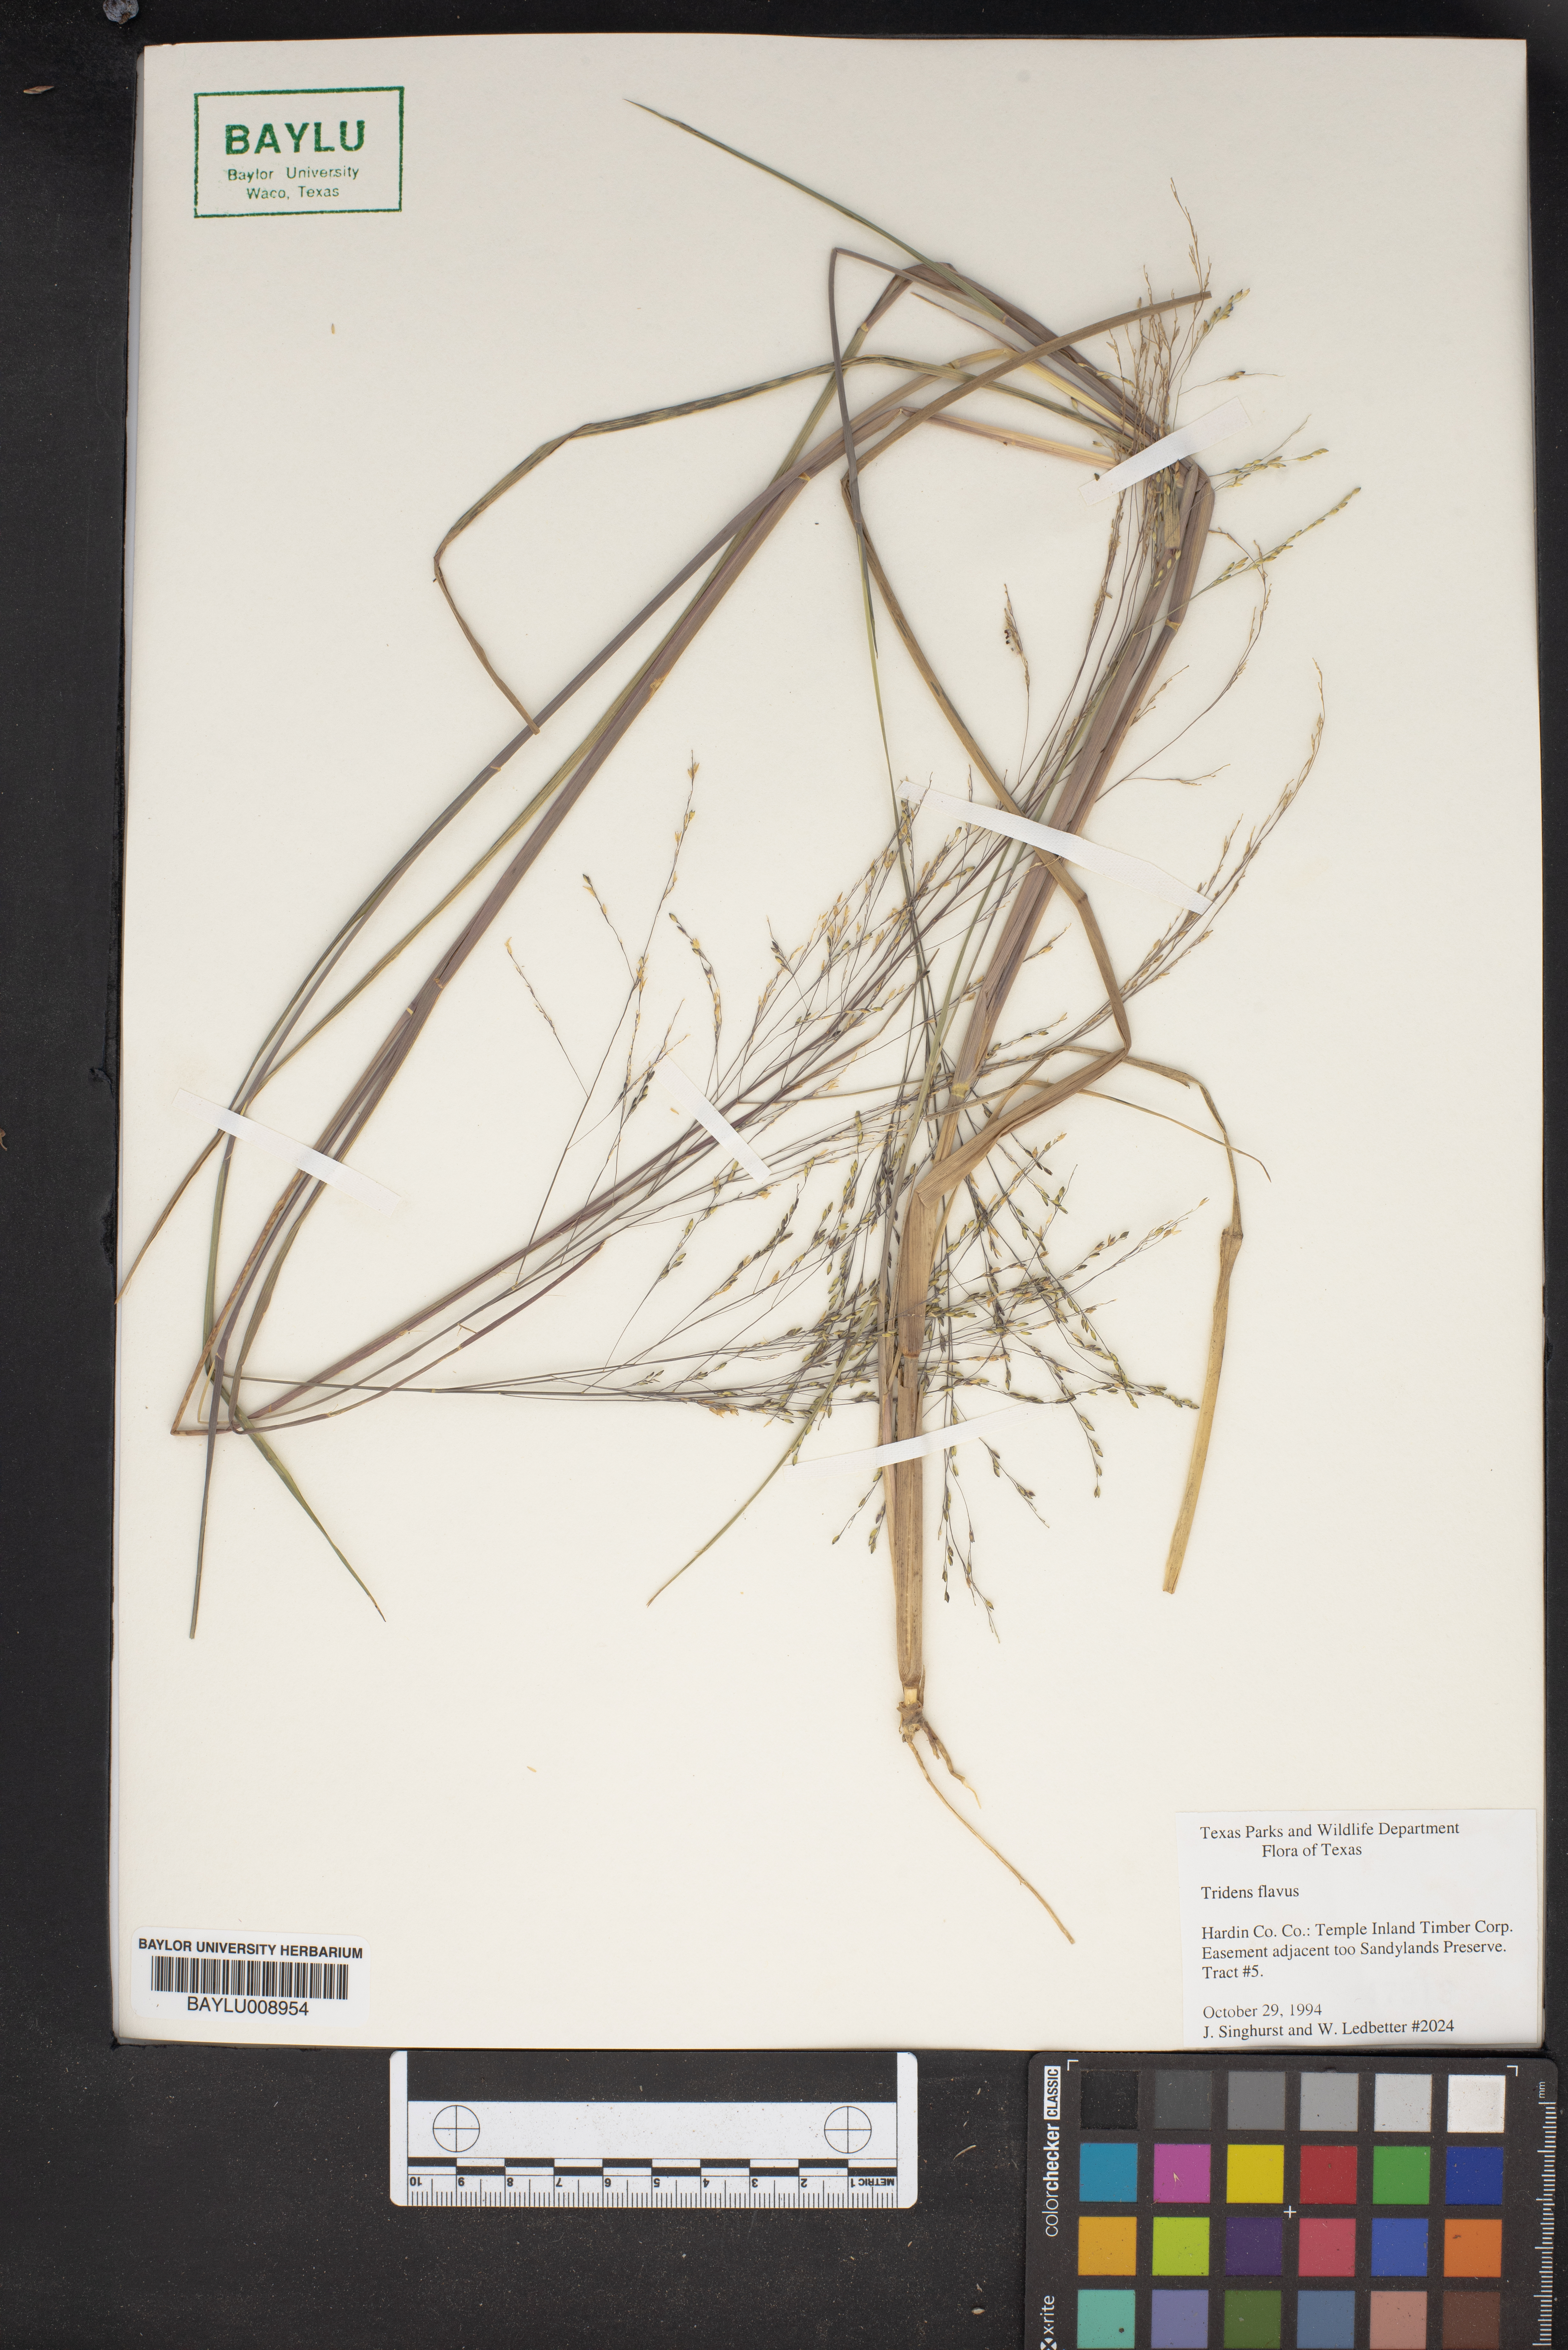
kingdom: Plantae
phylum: Tracheophyta
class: Liliopsida
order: Poales
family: Poaceae
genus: Tridens
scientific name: Tridens flavus
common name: Purpletop
